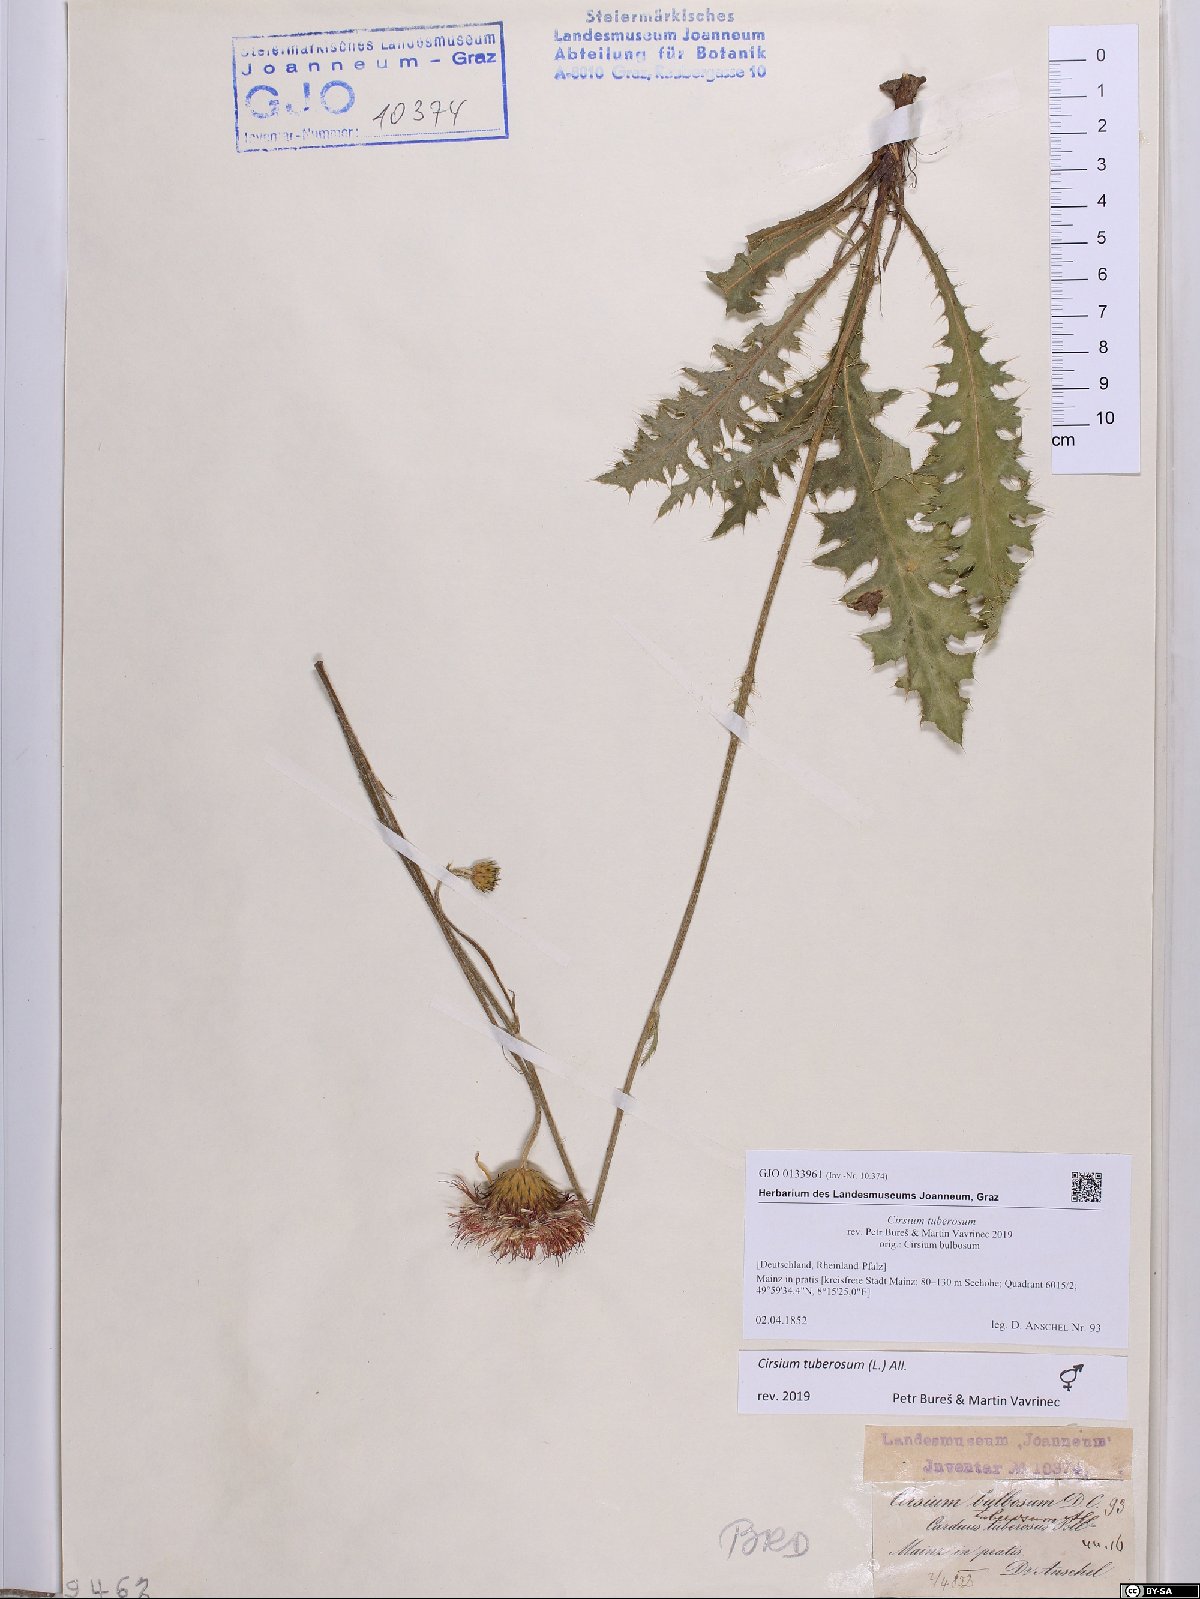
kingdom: Plantae
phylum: Tracheophyta
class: Magnoliopsida
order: Asterales
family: Asteraceae
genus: Cirsium
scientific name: Cirsium tuberosum
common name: Tuberous thistle
